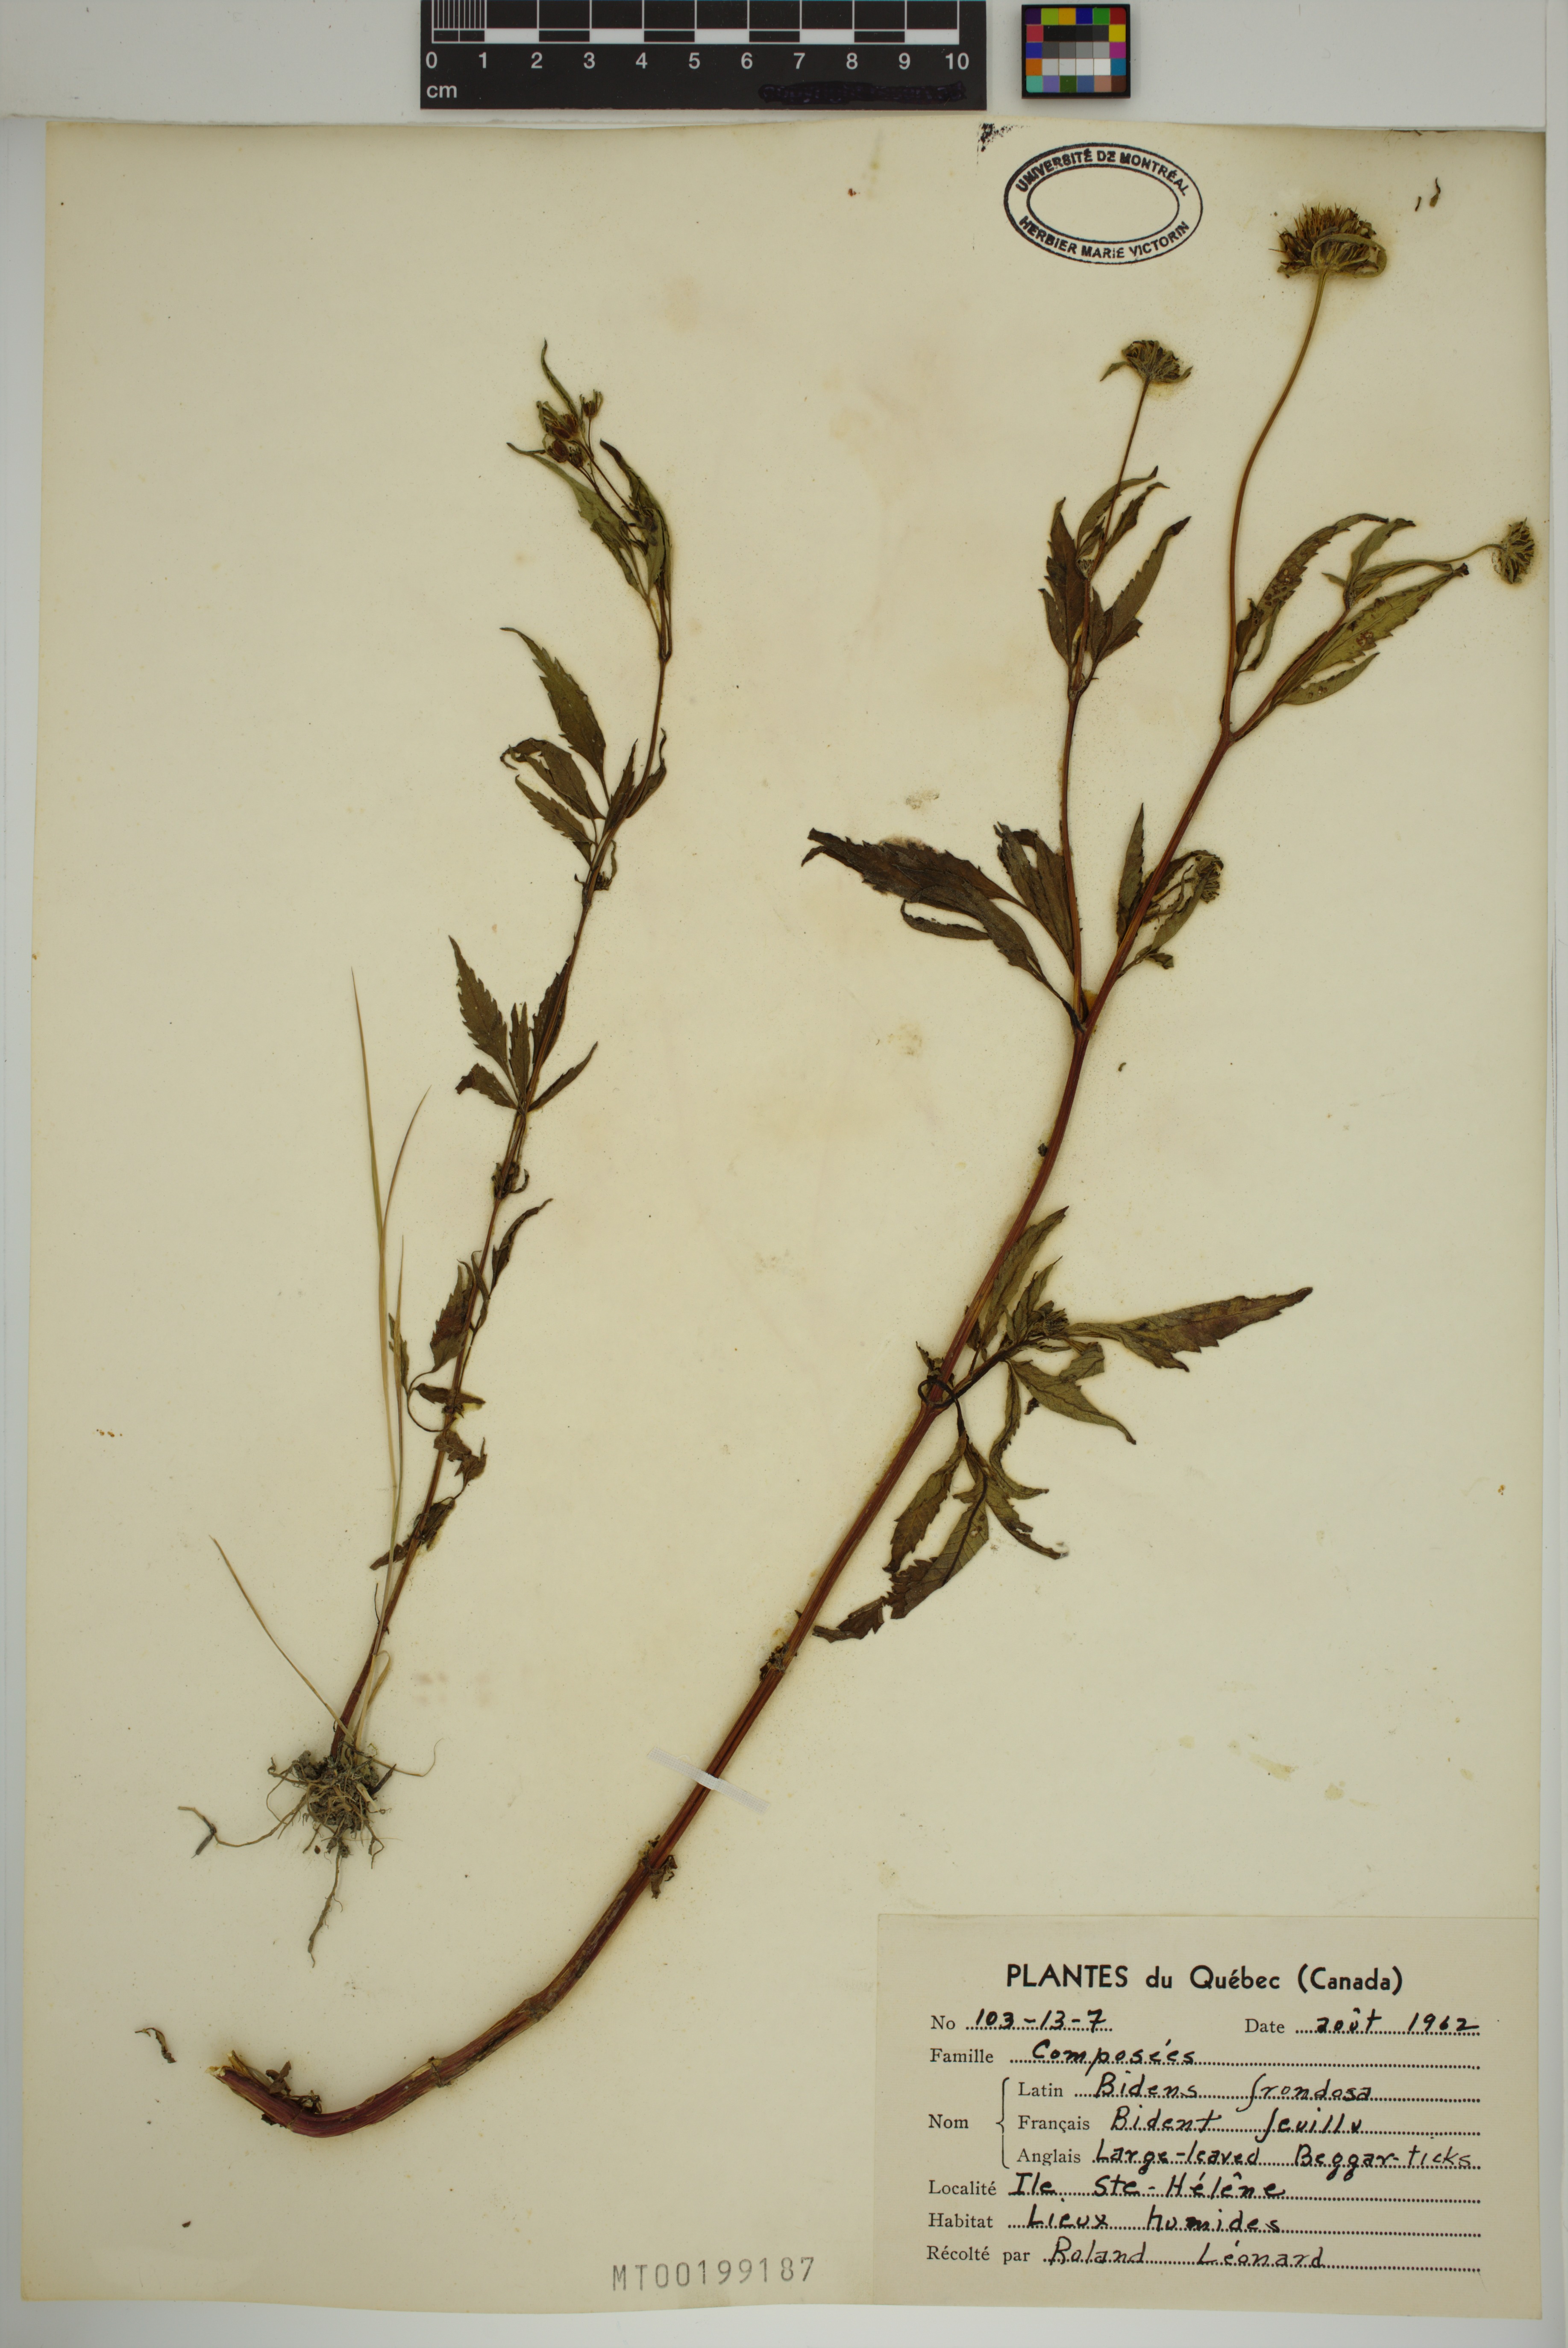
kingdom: Plantae
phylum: Tracheophyta
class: Magnoliopsida
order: Asterales
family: Asteraceae
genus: Bidens
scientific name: Bidens frondosa
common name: Beggarticks
